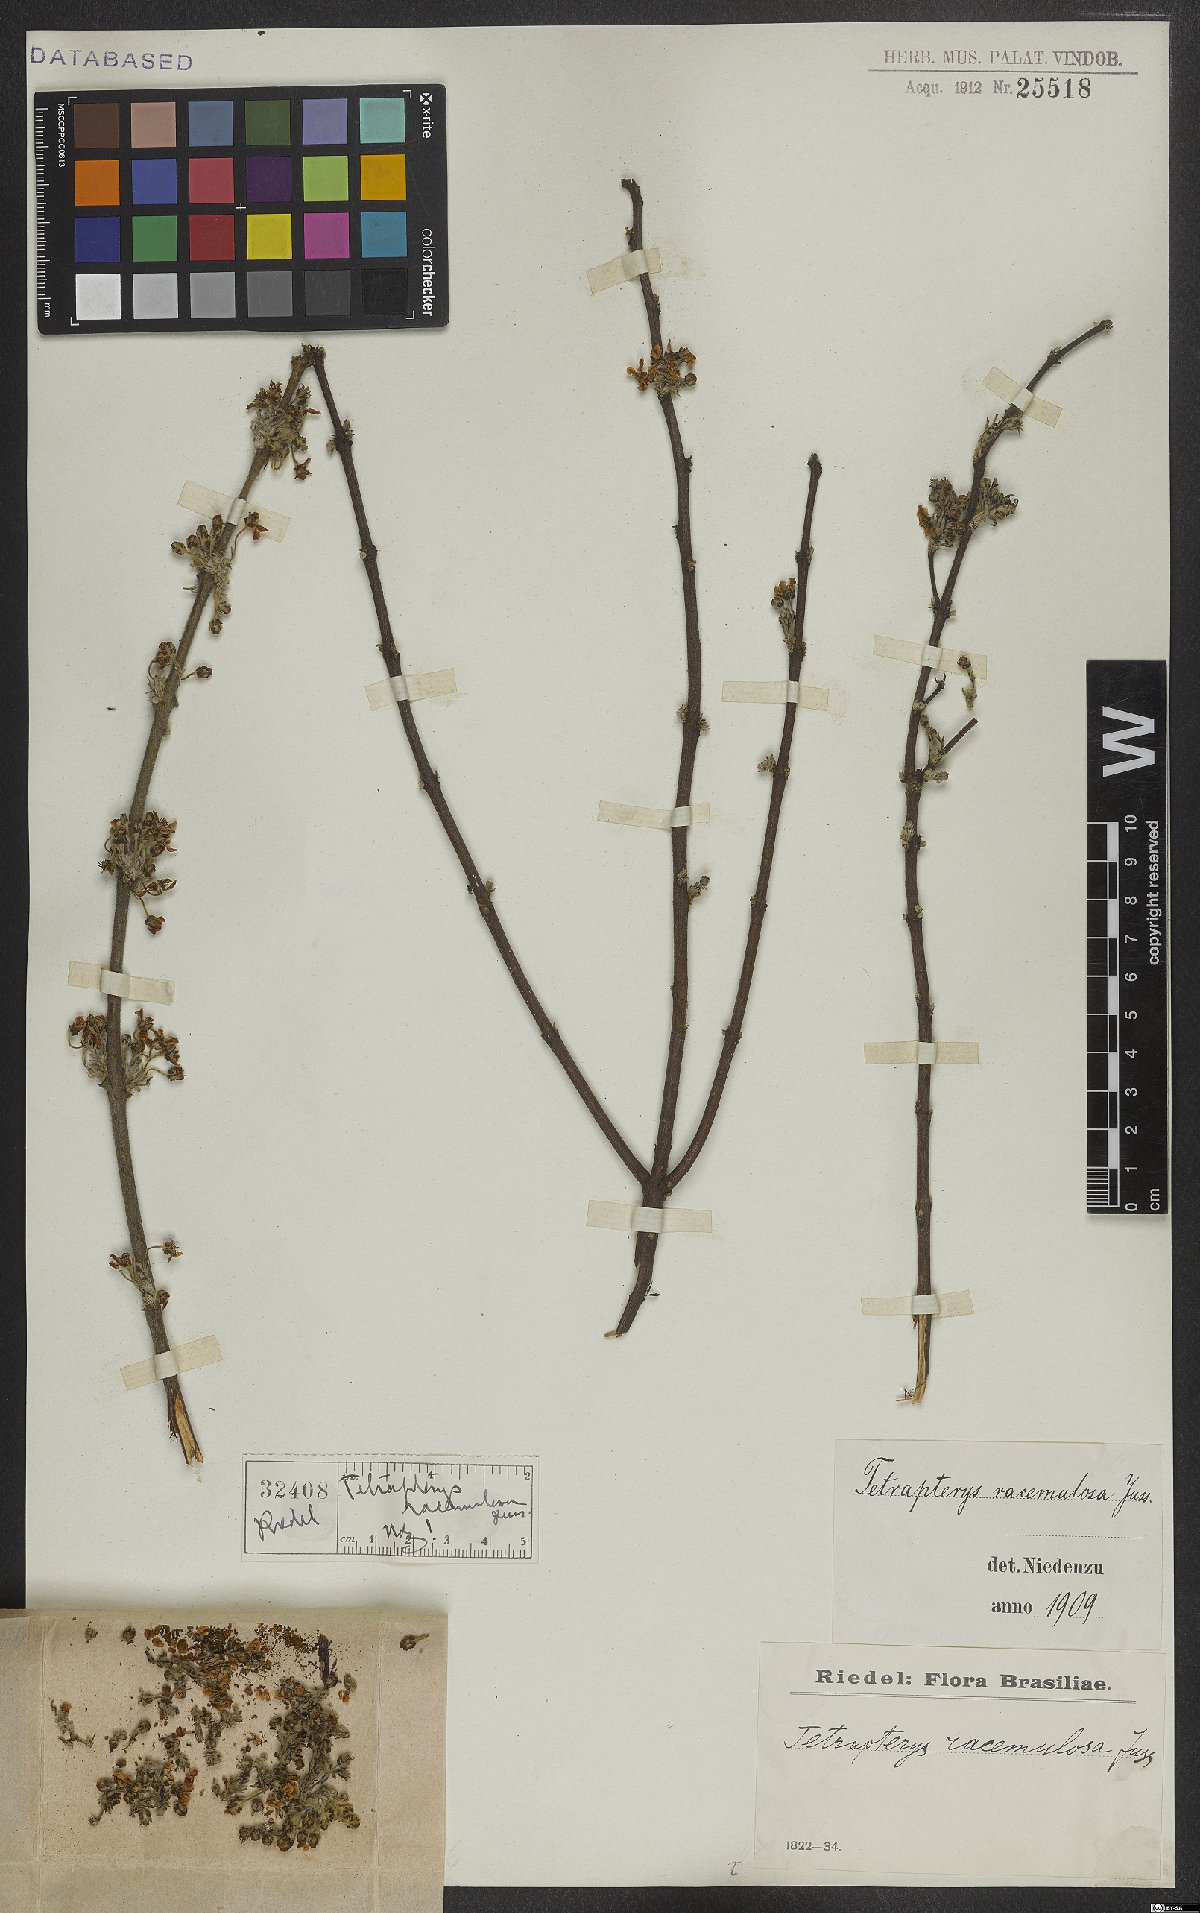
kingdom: Plantae
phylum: Tracheophyta
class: Magnoliopsida
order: Malpighiales
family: Malpighiaceae
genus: Glicophyllum
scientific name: Glicophyllum racemulosum
